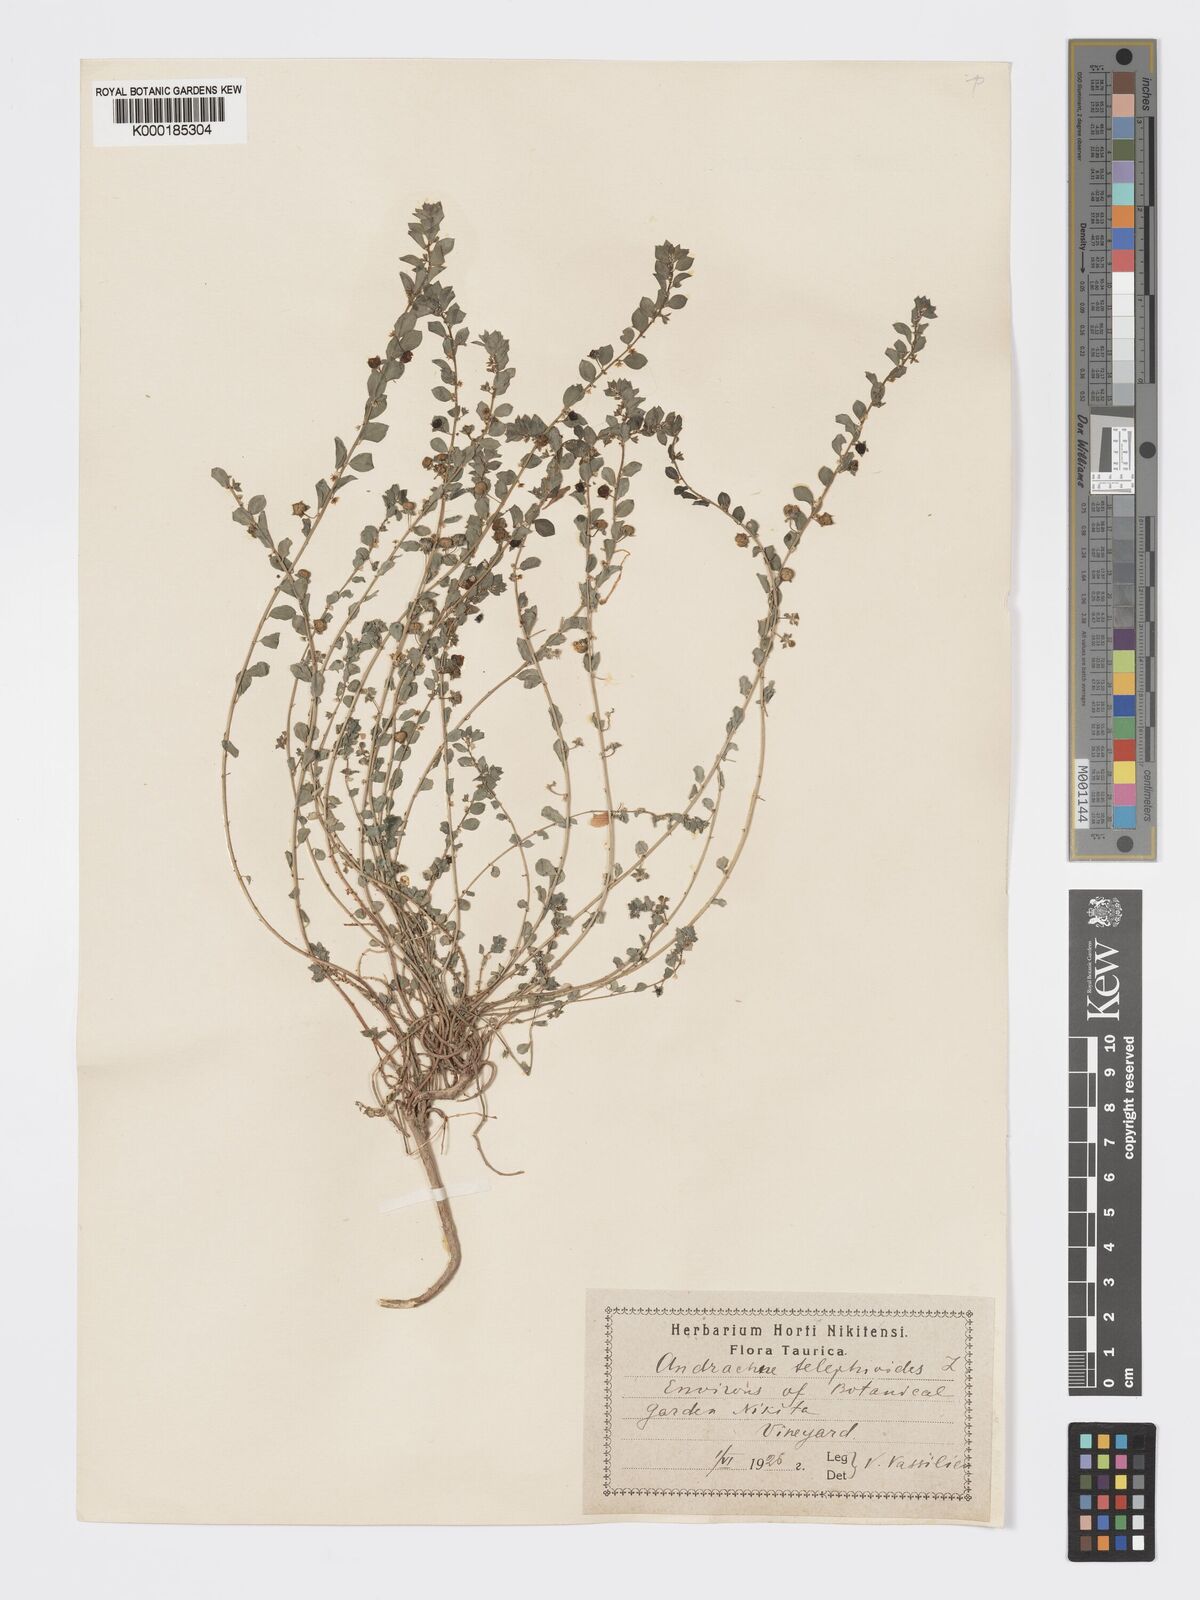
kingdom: Plantae
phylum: Tracheophyta
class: Magnoliopsida
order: Malpighiales
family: Phyllanthaceae
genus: Andrachne
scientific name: Andrachne telephioides
